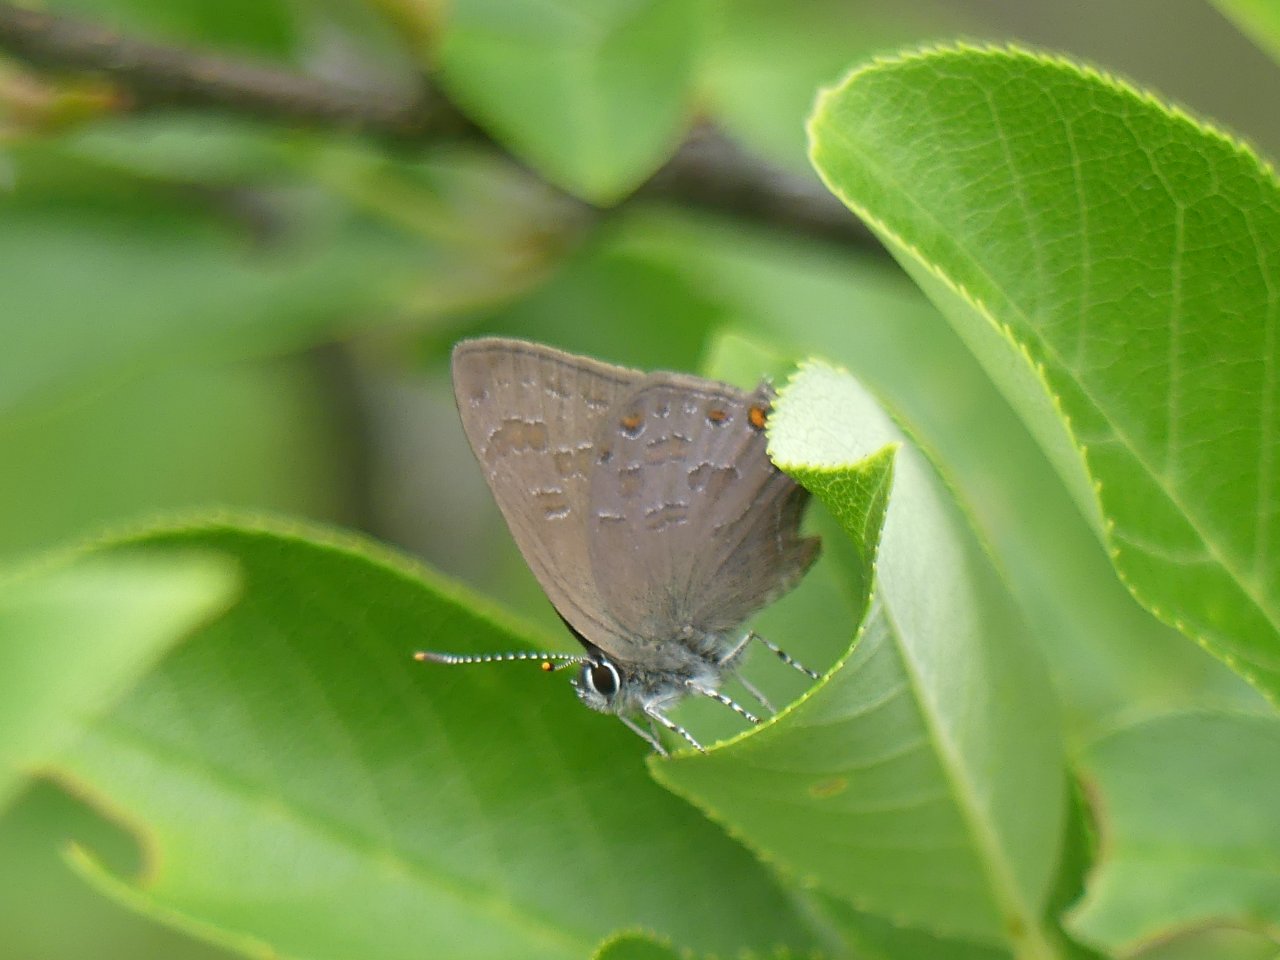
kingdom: Animalia
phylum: Arthropoda
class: Insecta
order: Lepidoptera
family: Lycaenidae
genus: Satyrium
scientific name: Satyrium liparops
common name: Striped Hairstreak
